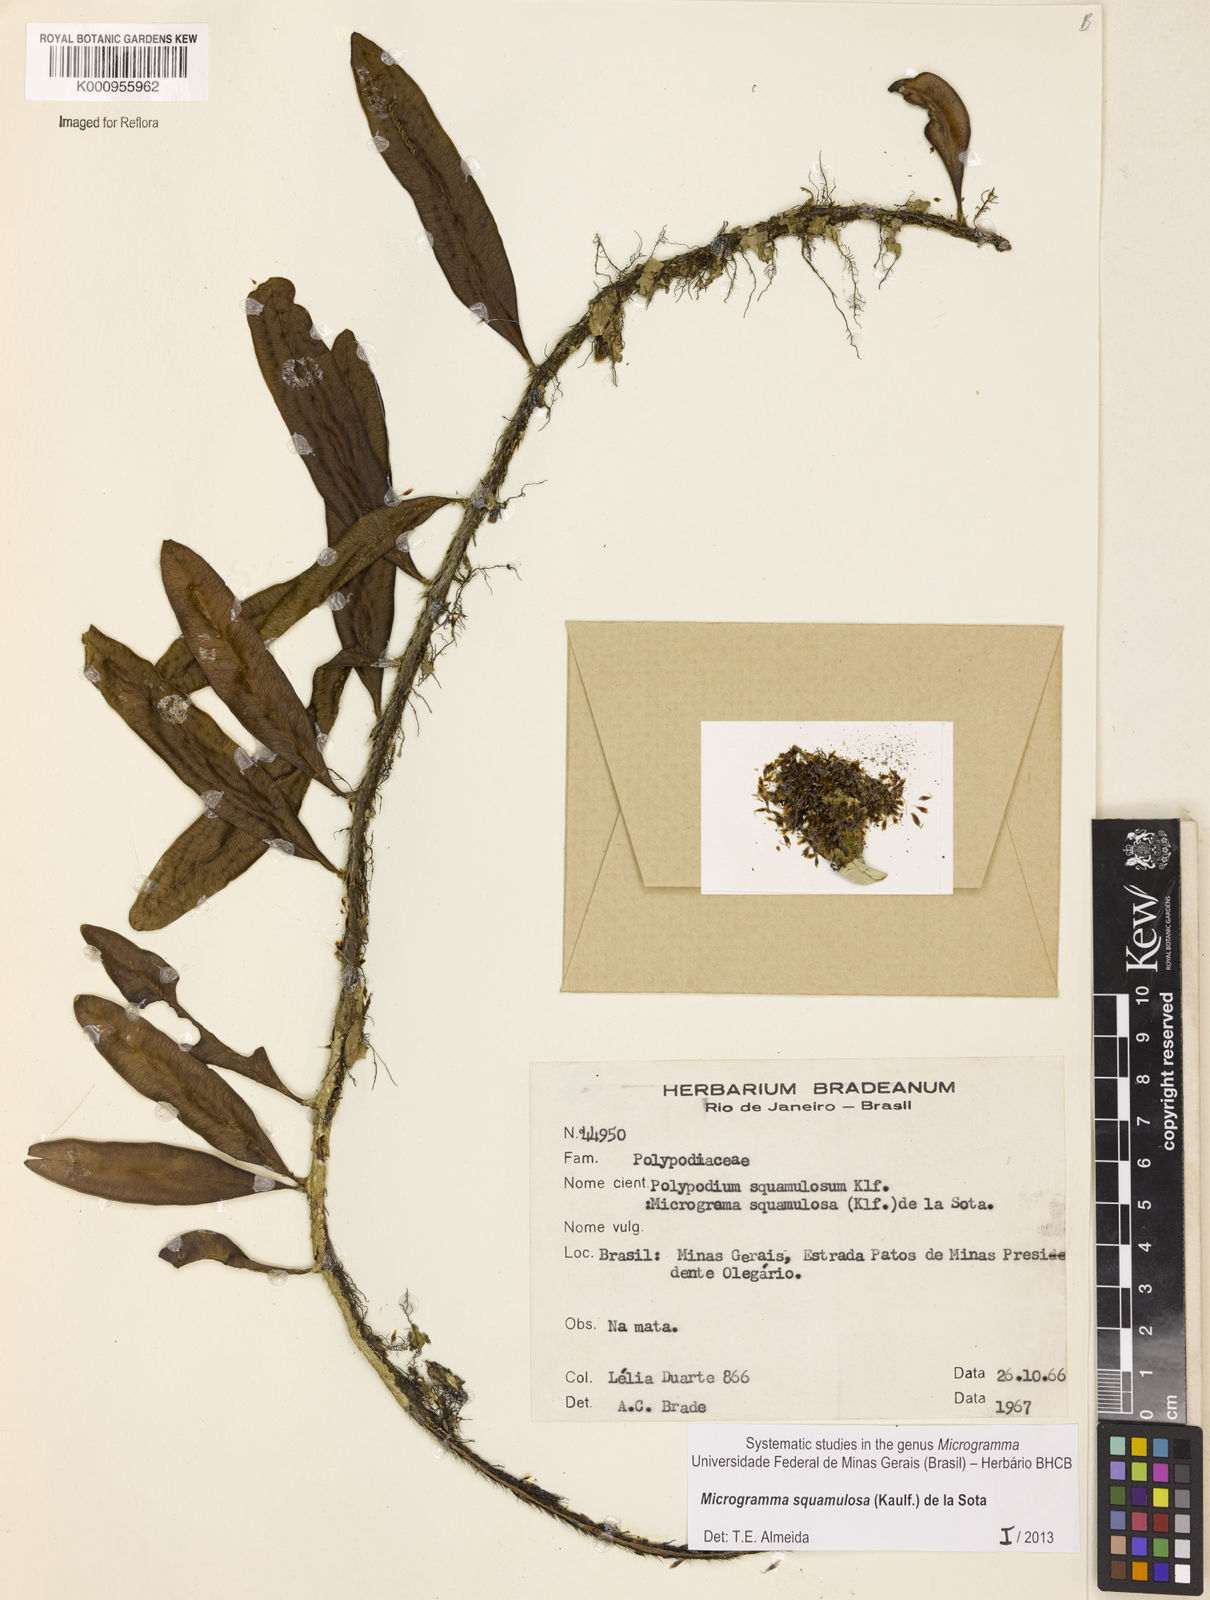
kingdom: Plantae
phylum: Tracheophyta
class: Polypodiopsida
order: Polypodiales
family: Polypodiaceae
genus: Microgramma
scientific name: Microgramma squamulosa
